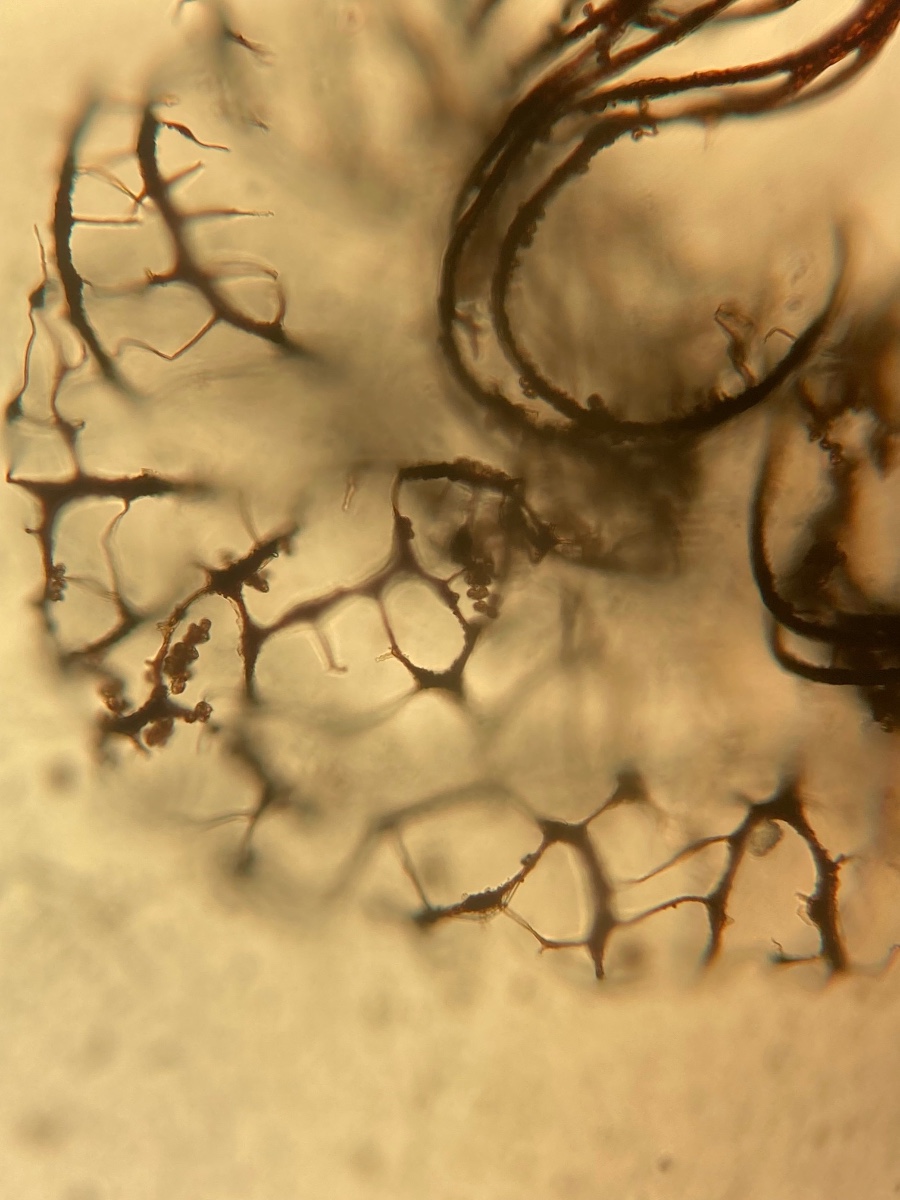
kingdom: Protozoa
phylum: Mycetozoa
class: Myxomycetes
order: Cribrariales
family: Cribrariaceae
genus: Cribraria
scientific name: Cribraria
